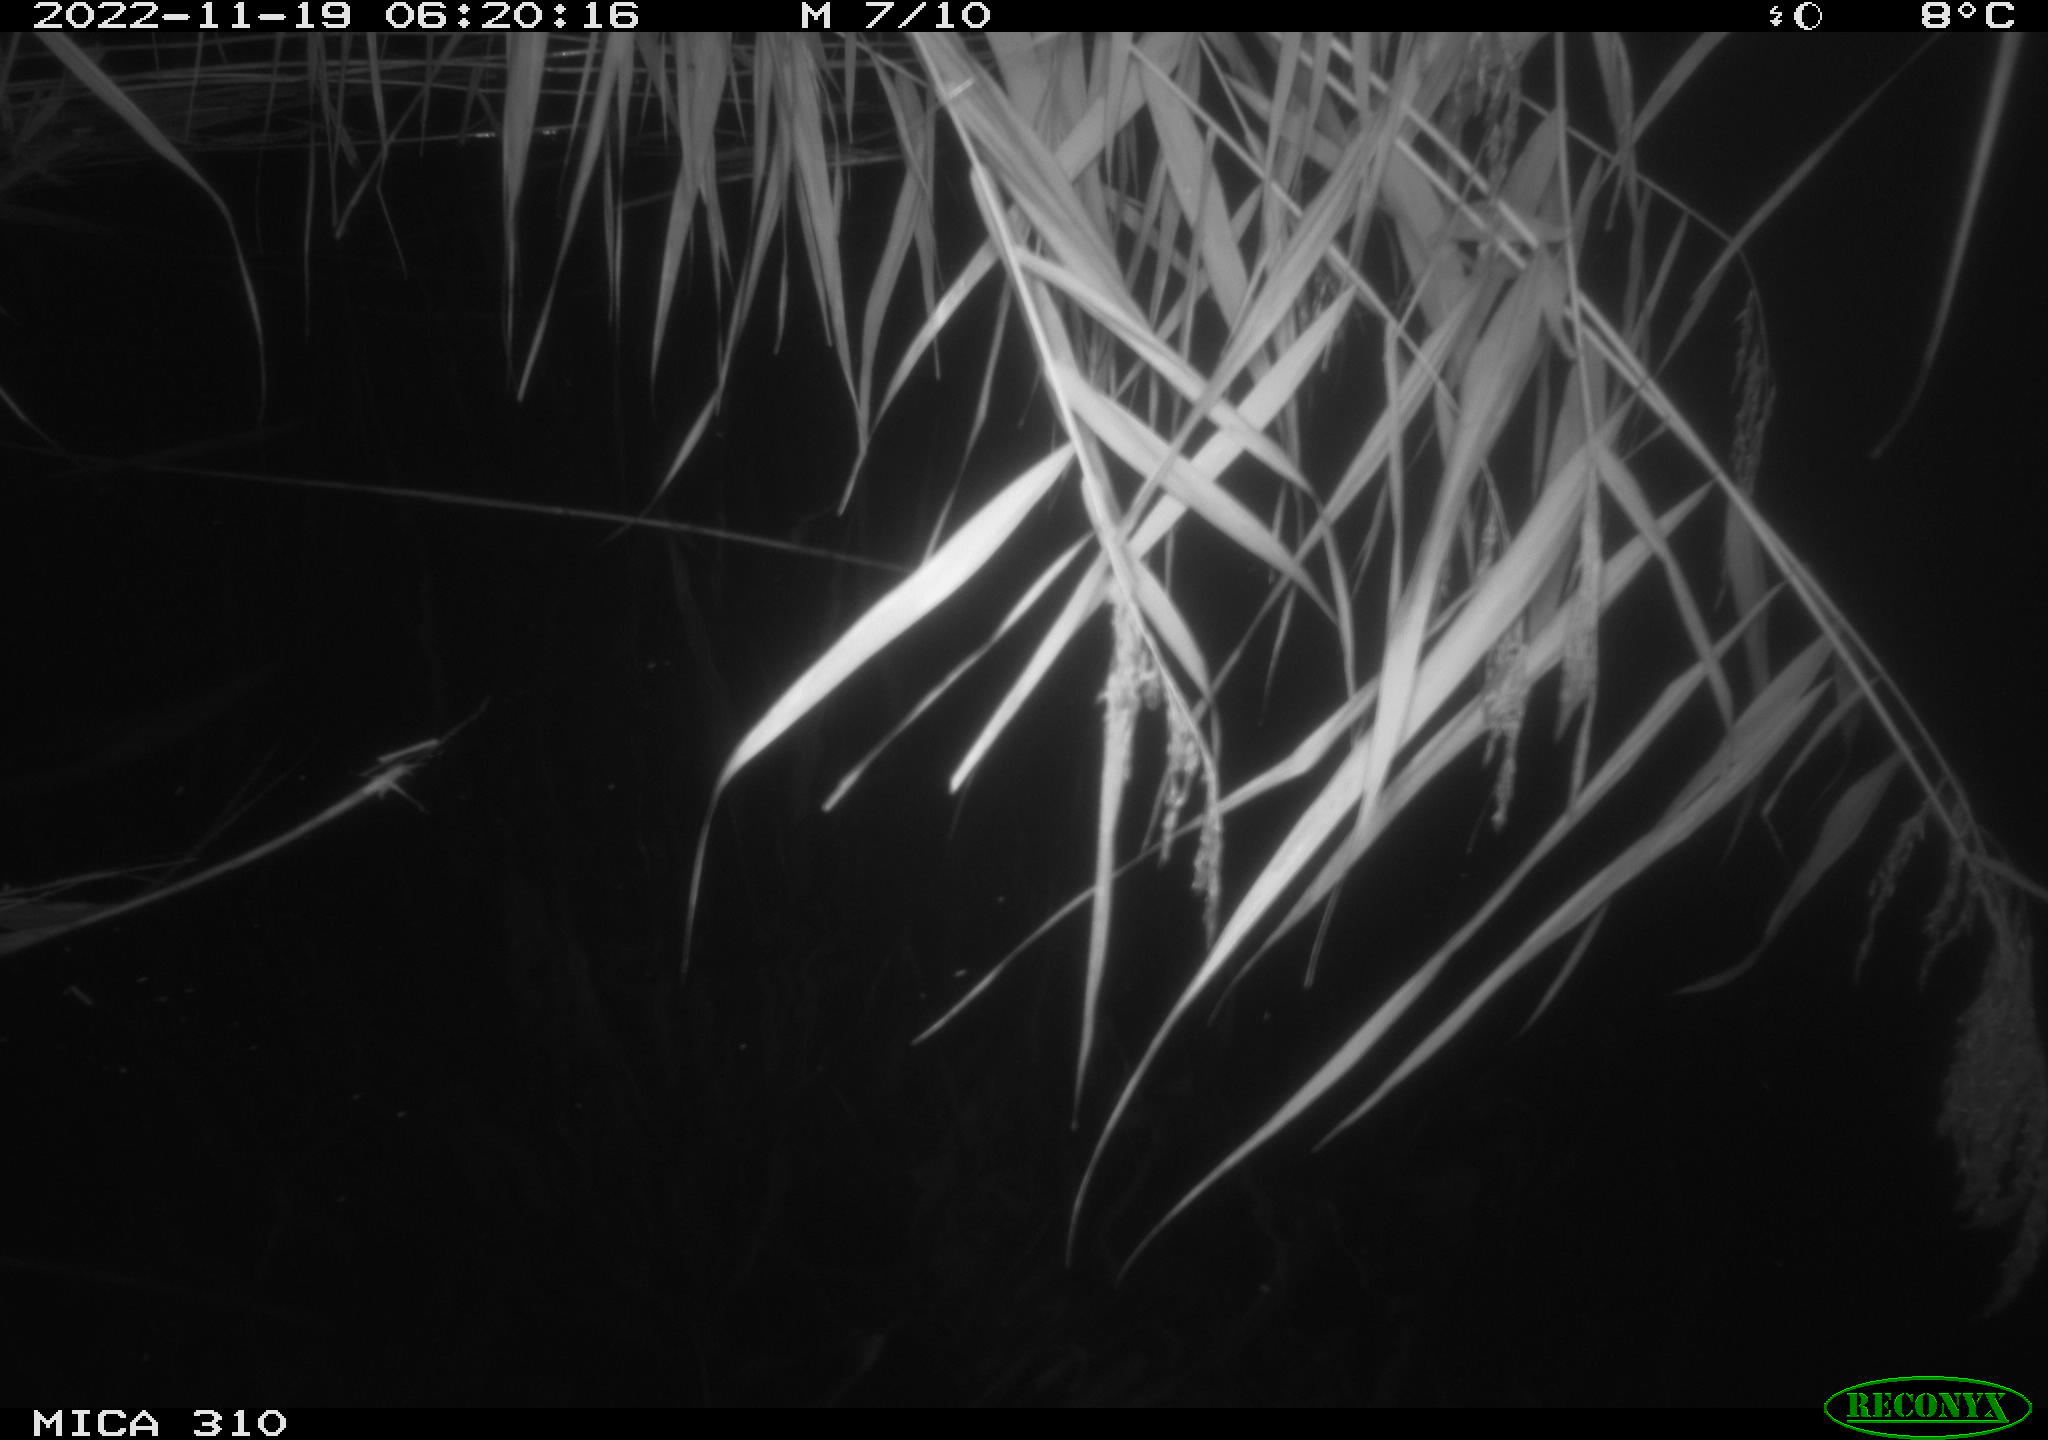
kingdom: Animalia
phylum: Chordata
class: Mammalia
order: Rodentia
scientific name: Rodentia
